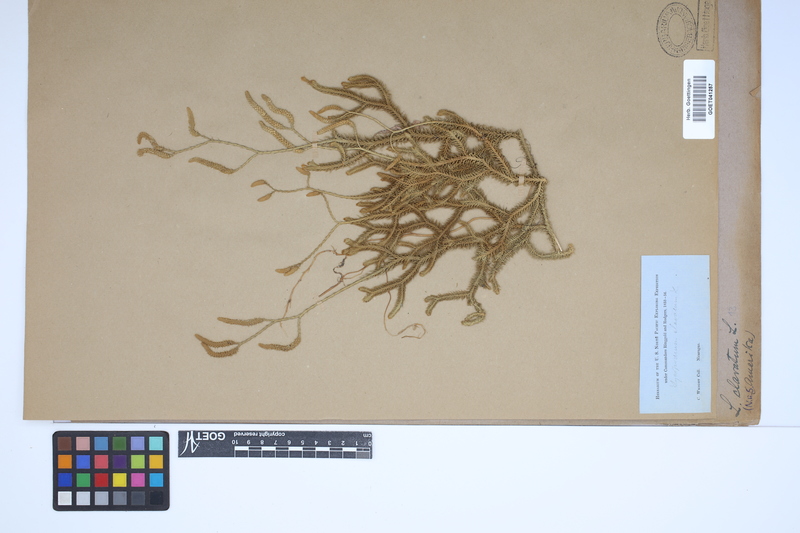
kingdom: Plantae
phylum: Tracheophyta
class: Lycopodiopsida
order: Lycopodiales
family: Lycopodiaceae
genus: Lycopodium
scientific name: Lycopodium clavatum
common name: Stag's-horn clubmoss
